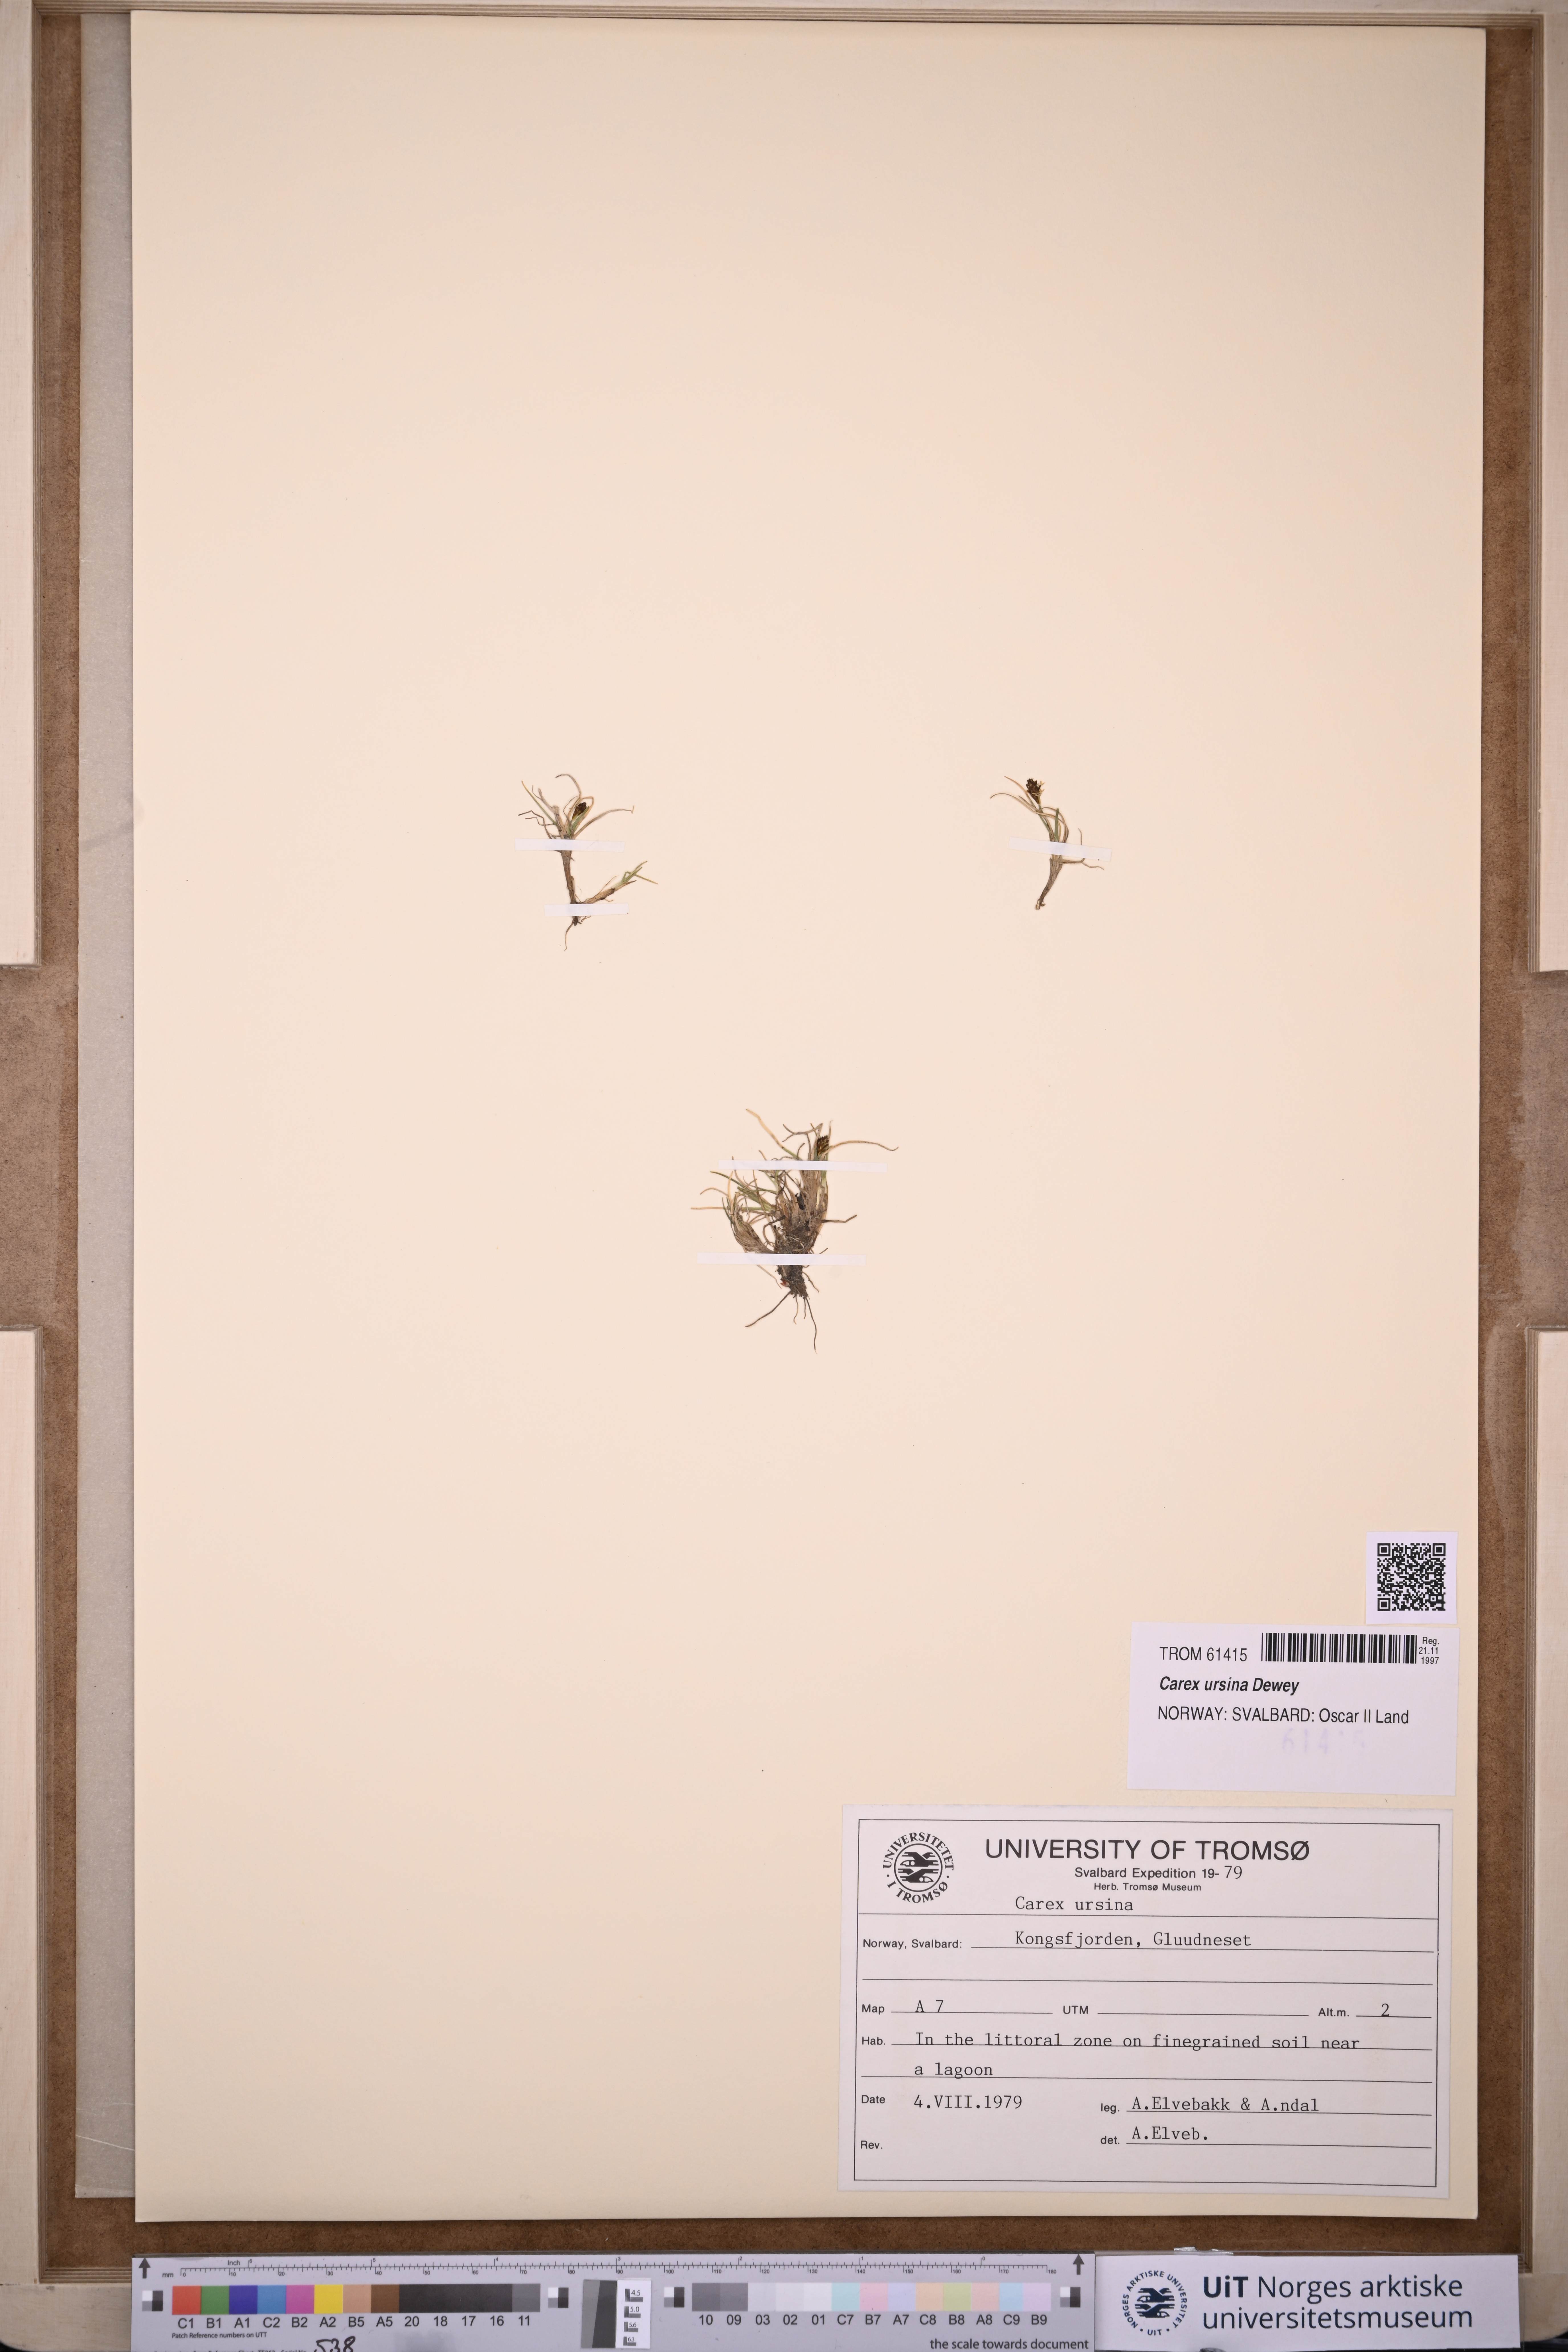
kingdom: Plantae
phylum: Tracheophyta
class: Liliopsida
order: Poales
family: Cyperaceae
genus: Carex
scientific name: Carex ursina
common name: Bear sedge
